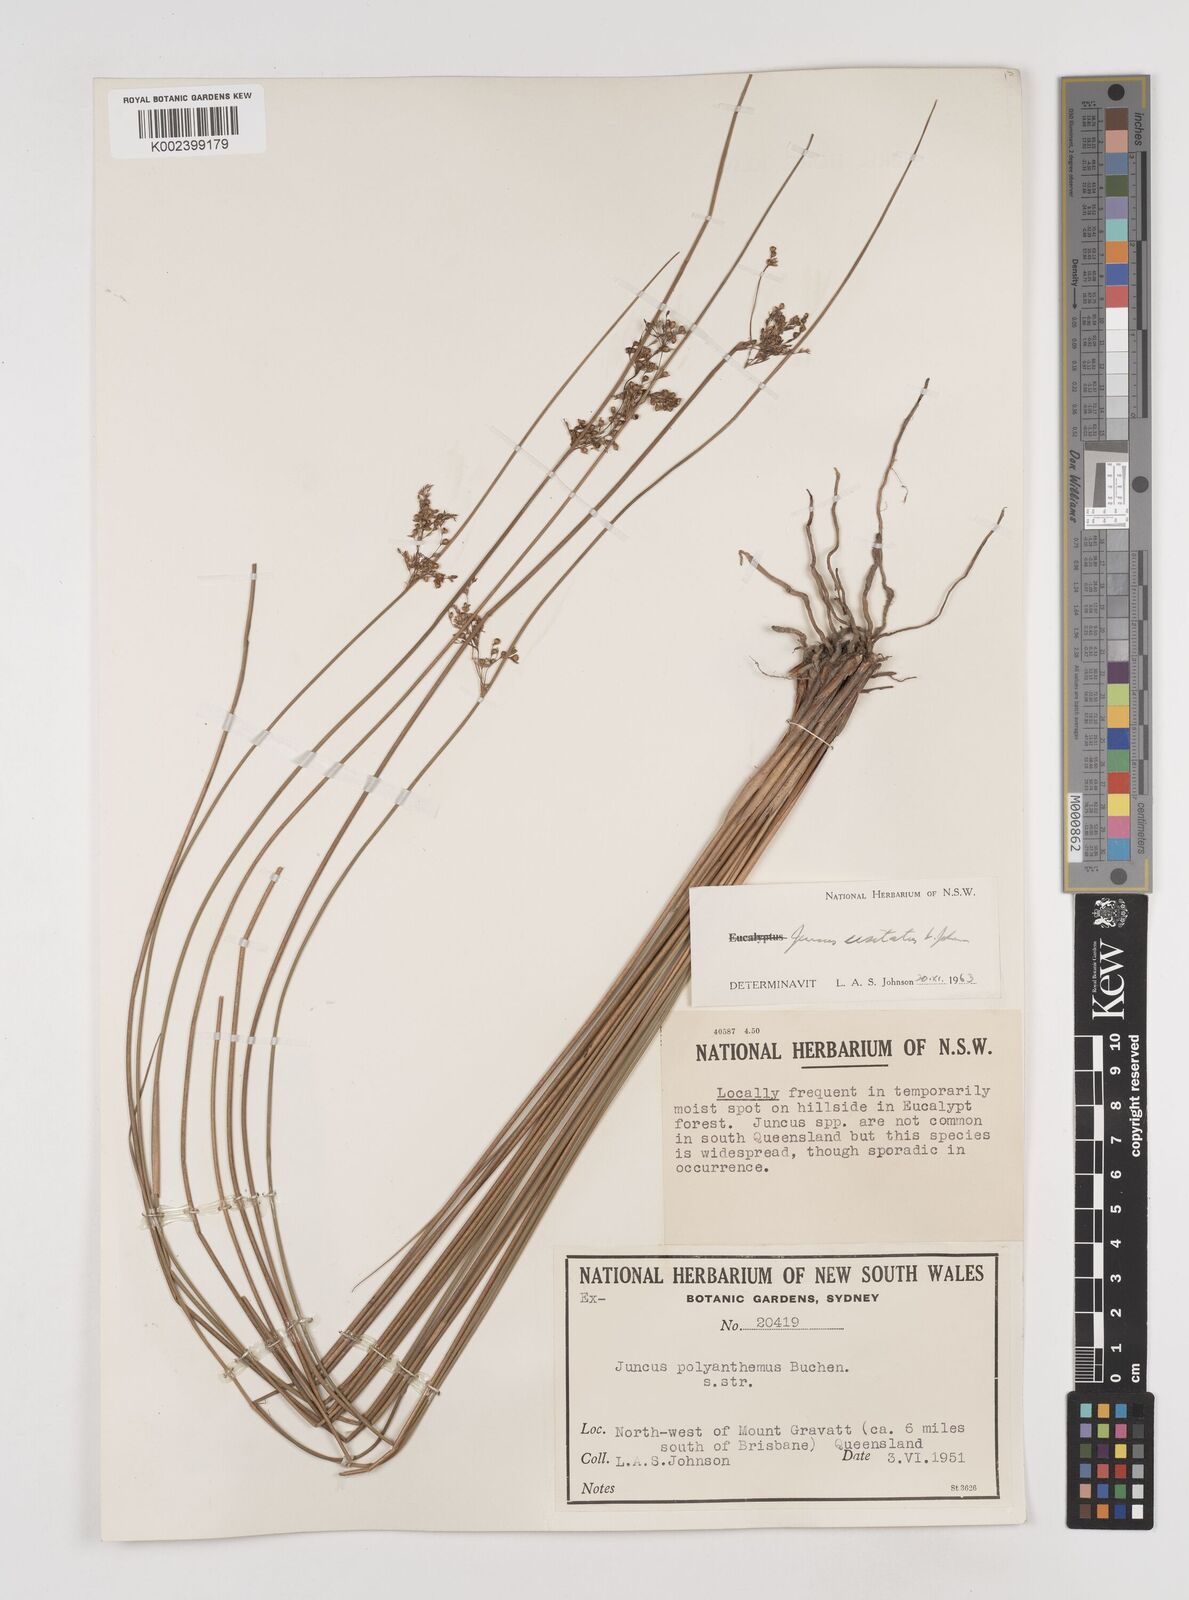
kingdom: Plantae
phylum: Tracheophyta
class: Liliopsida
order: Poales
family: Juncaceae
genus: Juncus
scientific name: Juncus usitatus
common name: Rush
